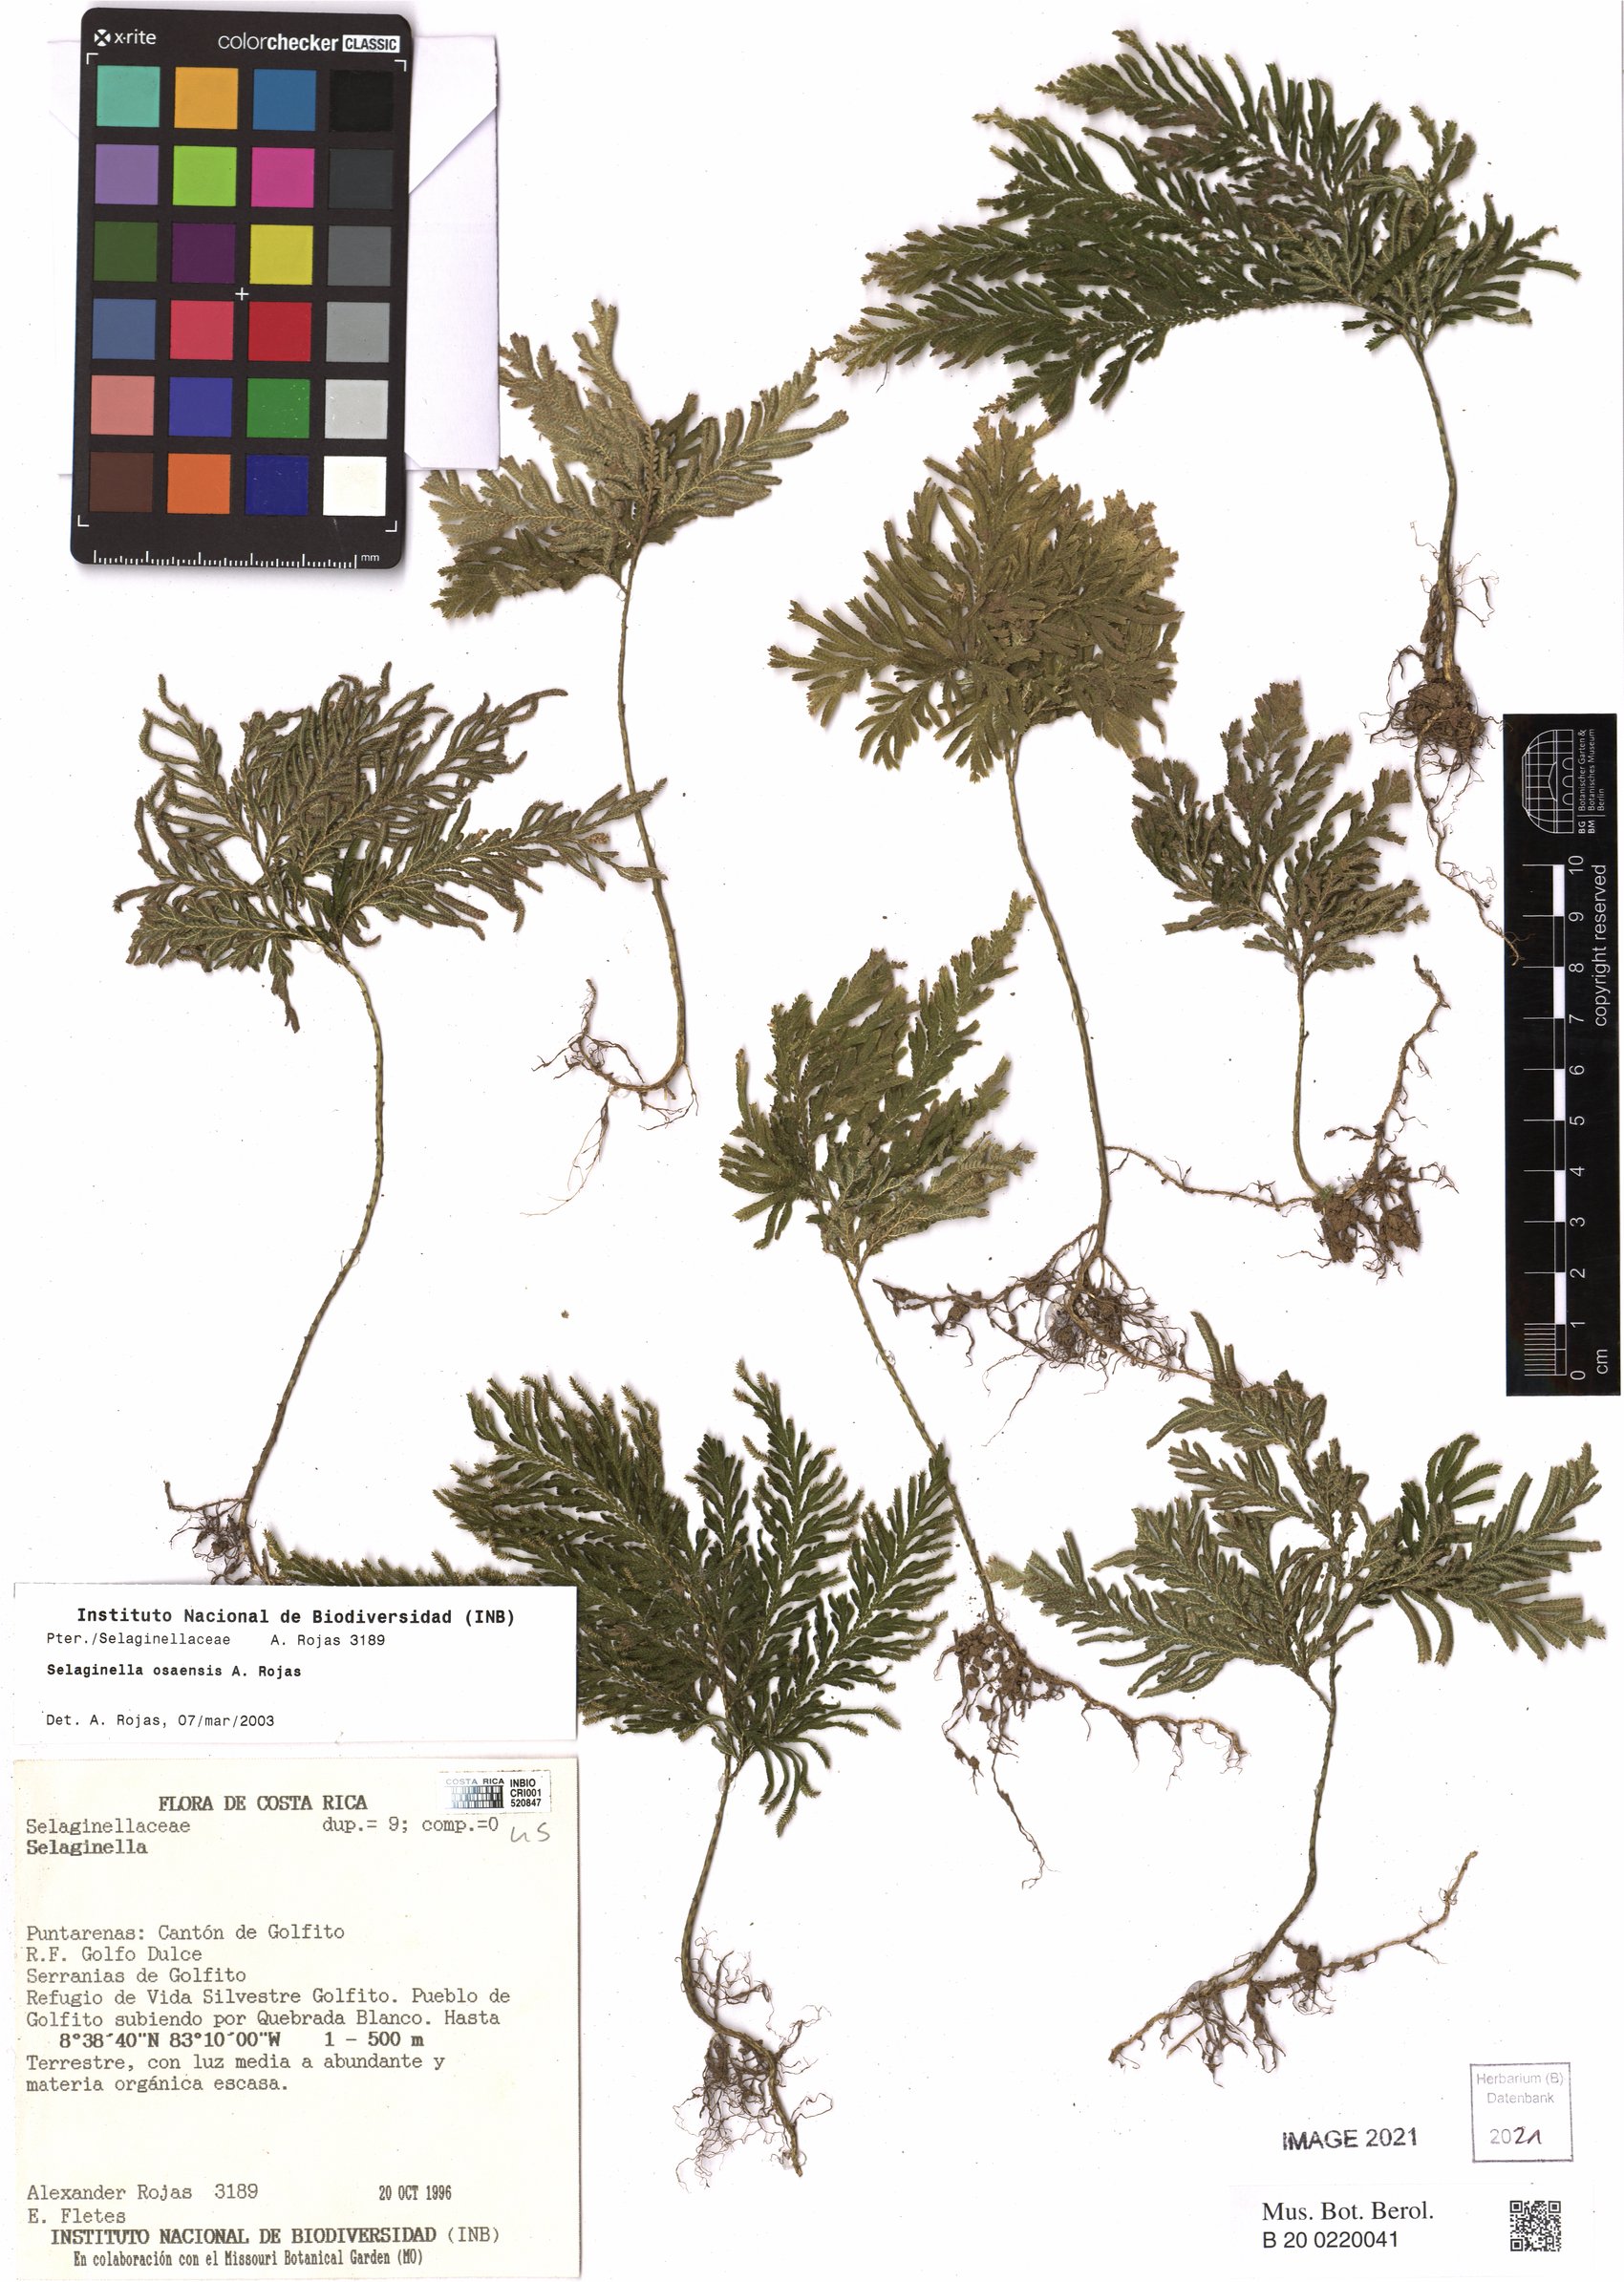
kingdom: Plantae
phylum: Tracheophyta
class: Lycopodiopsida
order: Selaginellales
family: Selaginellaceae
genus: Selaginella
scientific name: Selaginella osaensis
